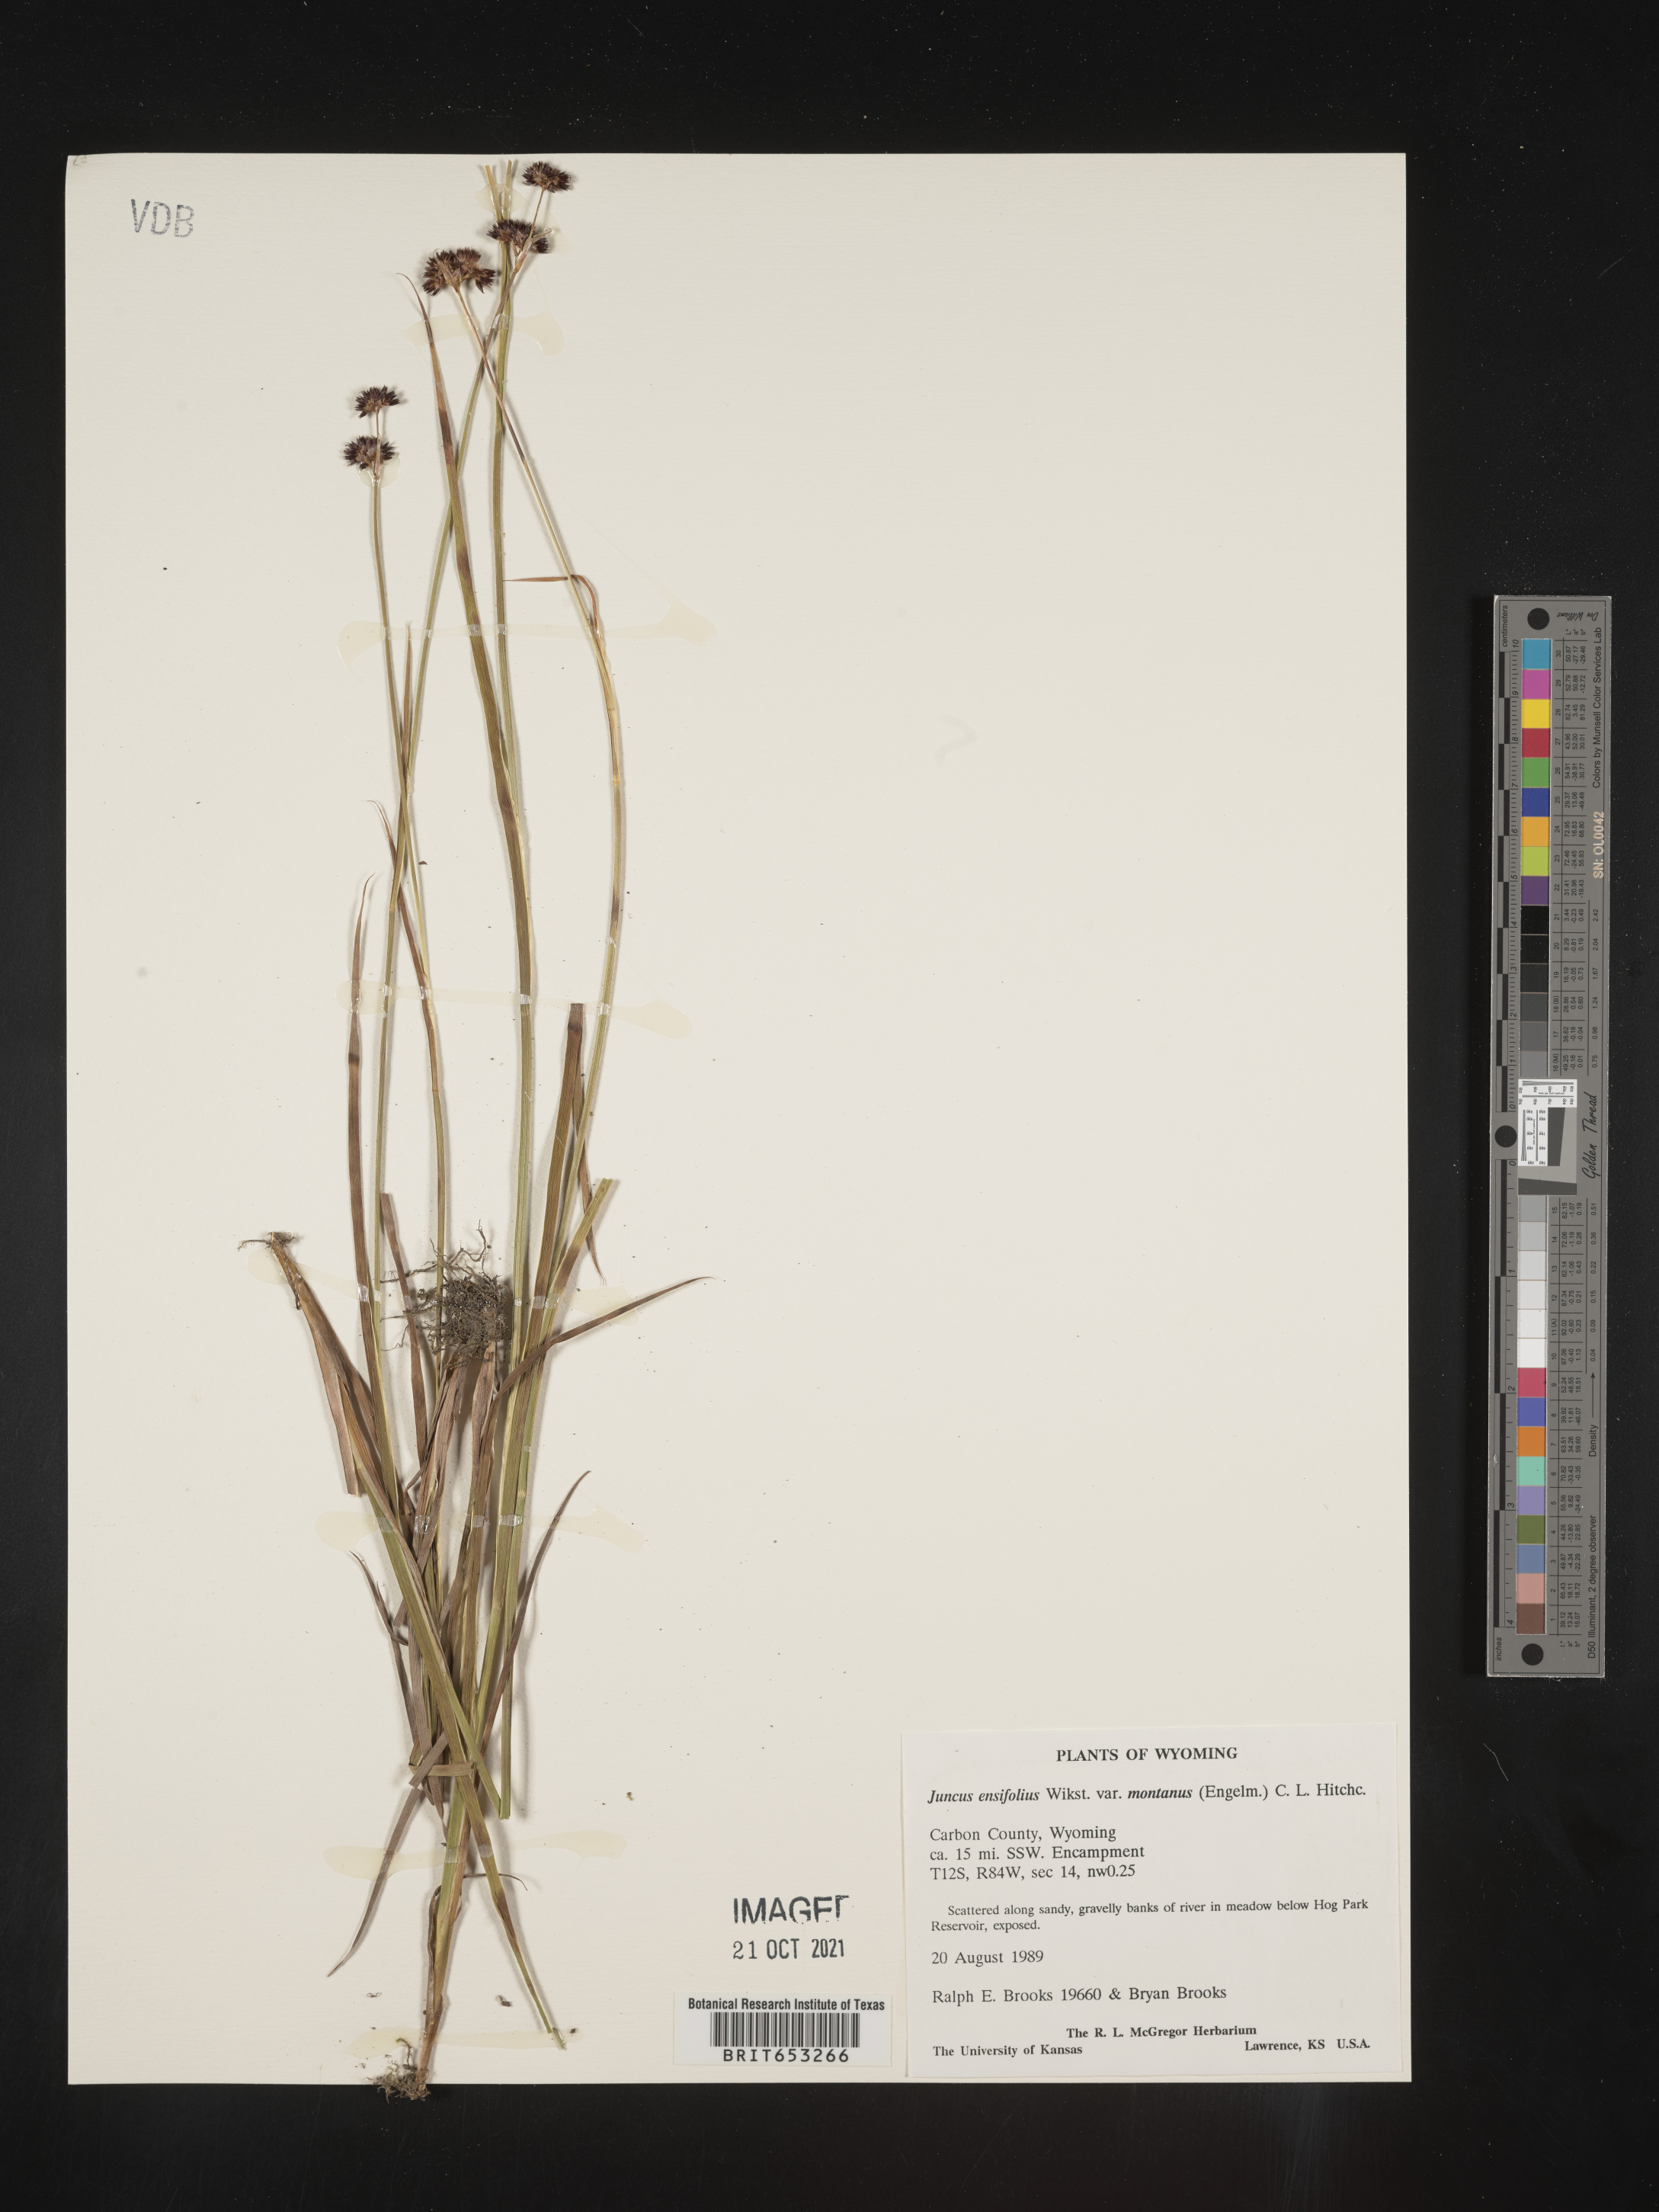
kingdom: Plantae
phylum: Tracheophyta
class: Liliopsida
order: Poales
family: Juncaceae
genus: Juncus
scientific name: Juncus ensifolius
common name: Sword-leaved rush
